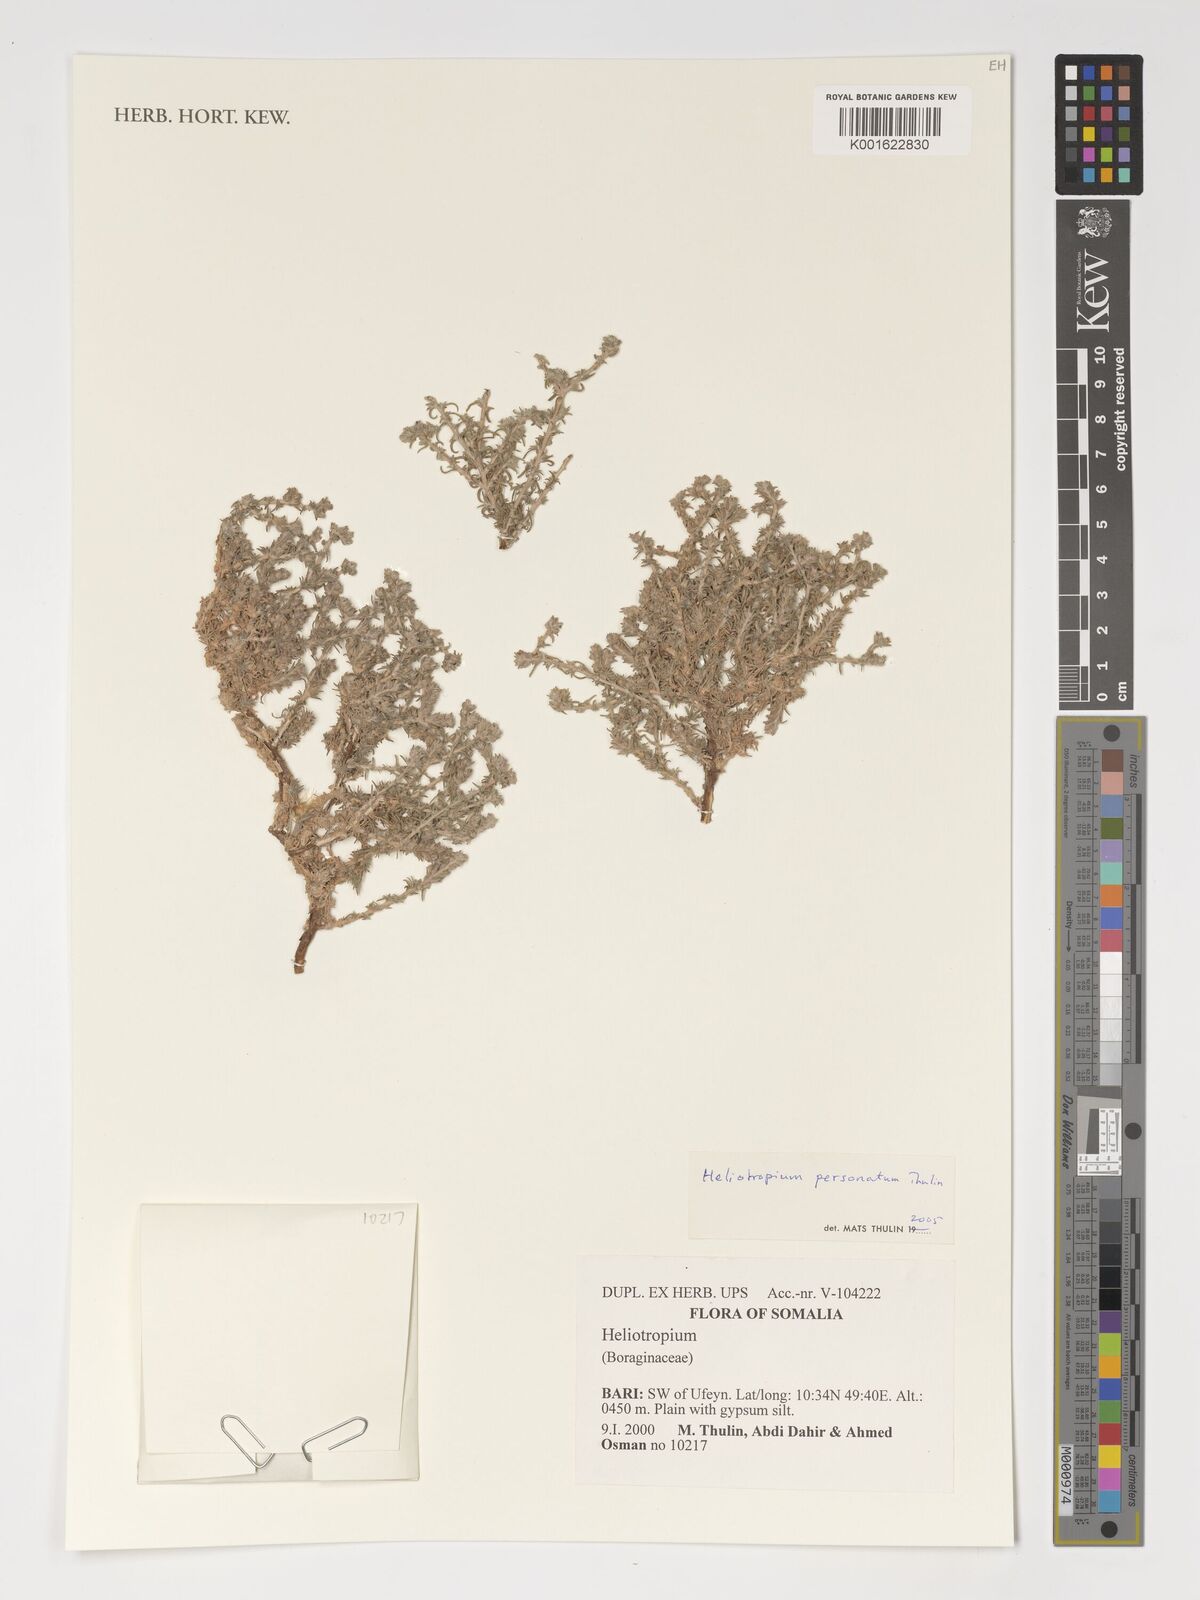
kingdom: Plantae
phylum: Tracheophyta
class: Magnoliopsida
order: Boraginales
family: Heliotropiaceae
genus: Euploca
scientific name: Euploca personata
